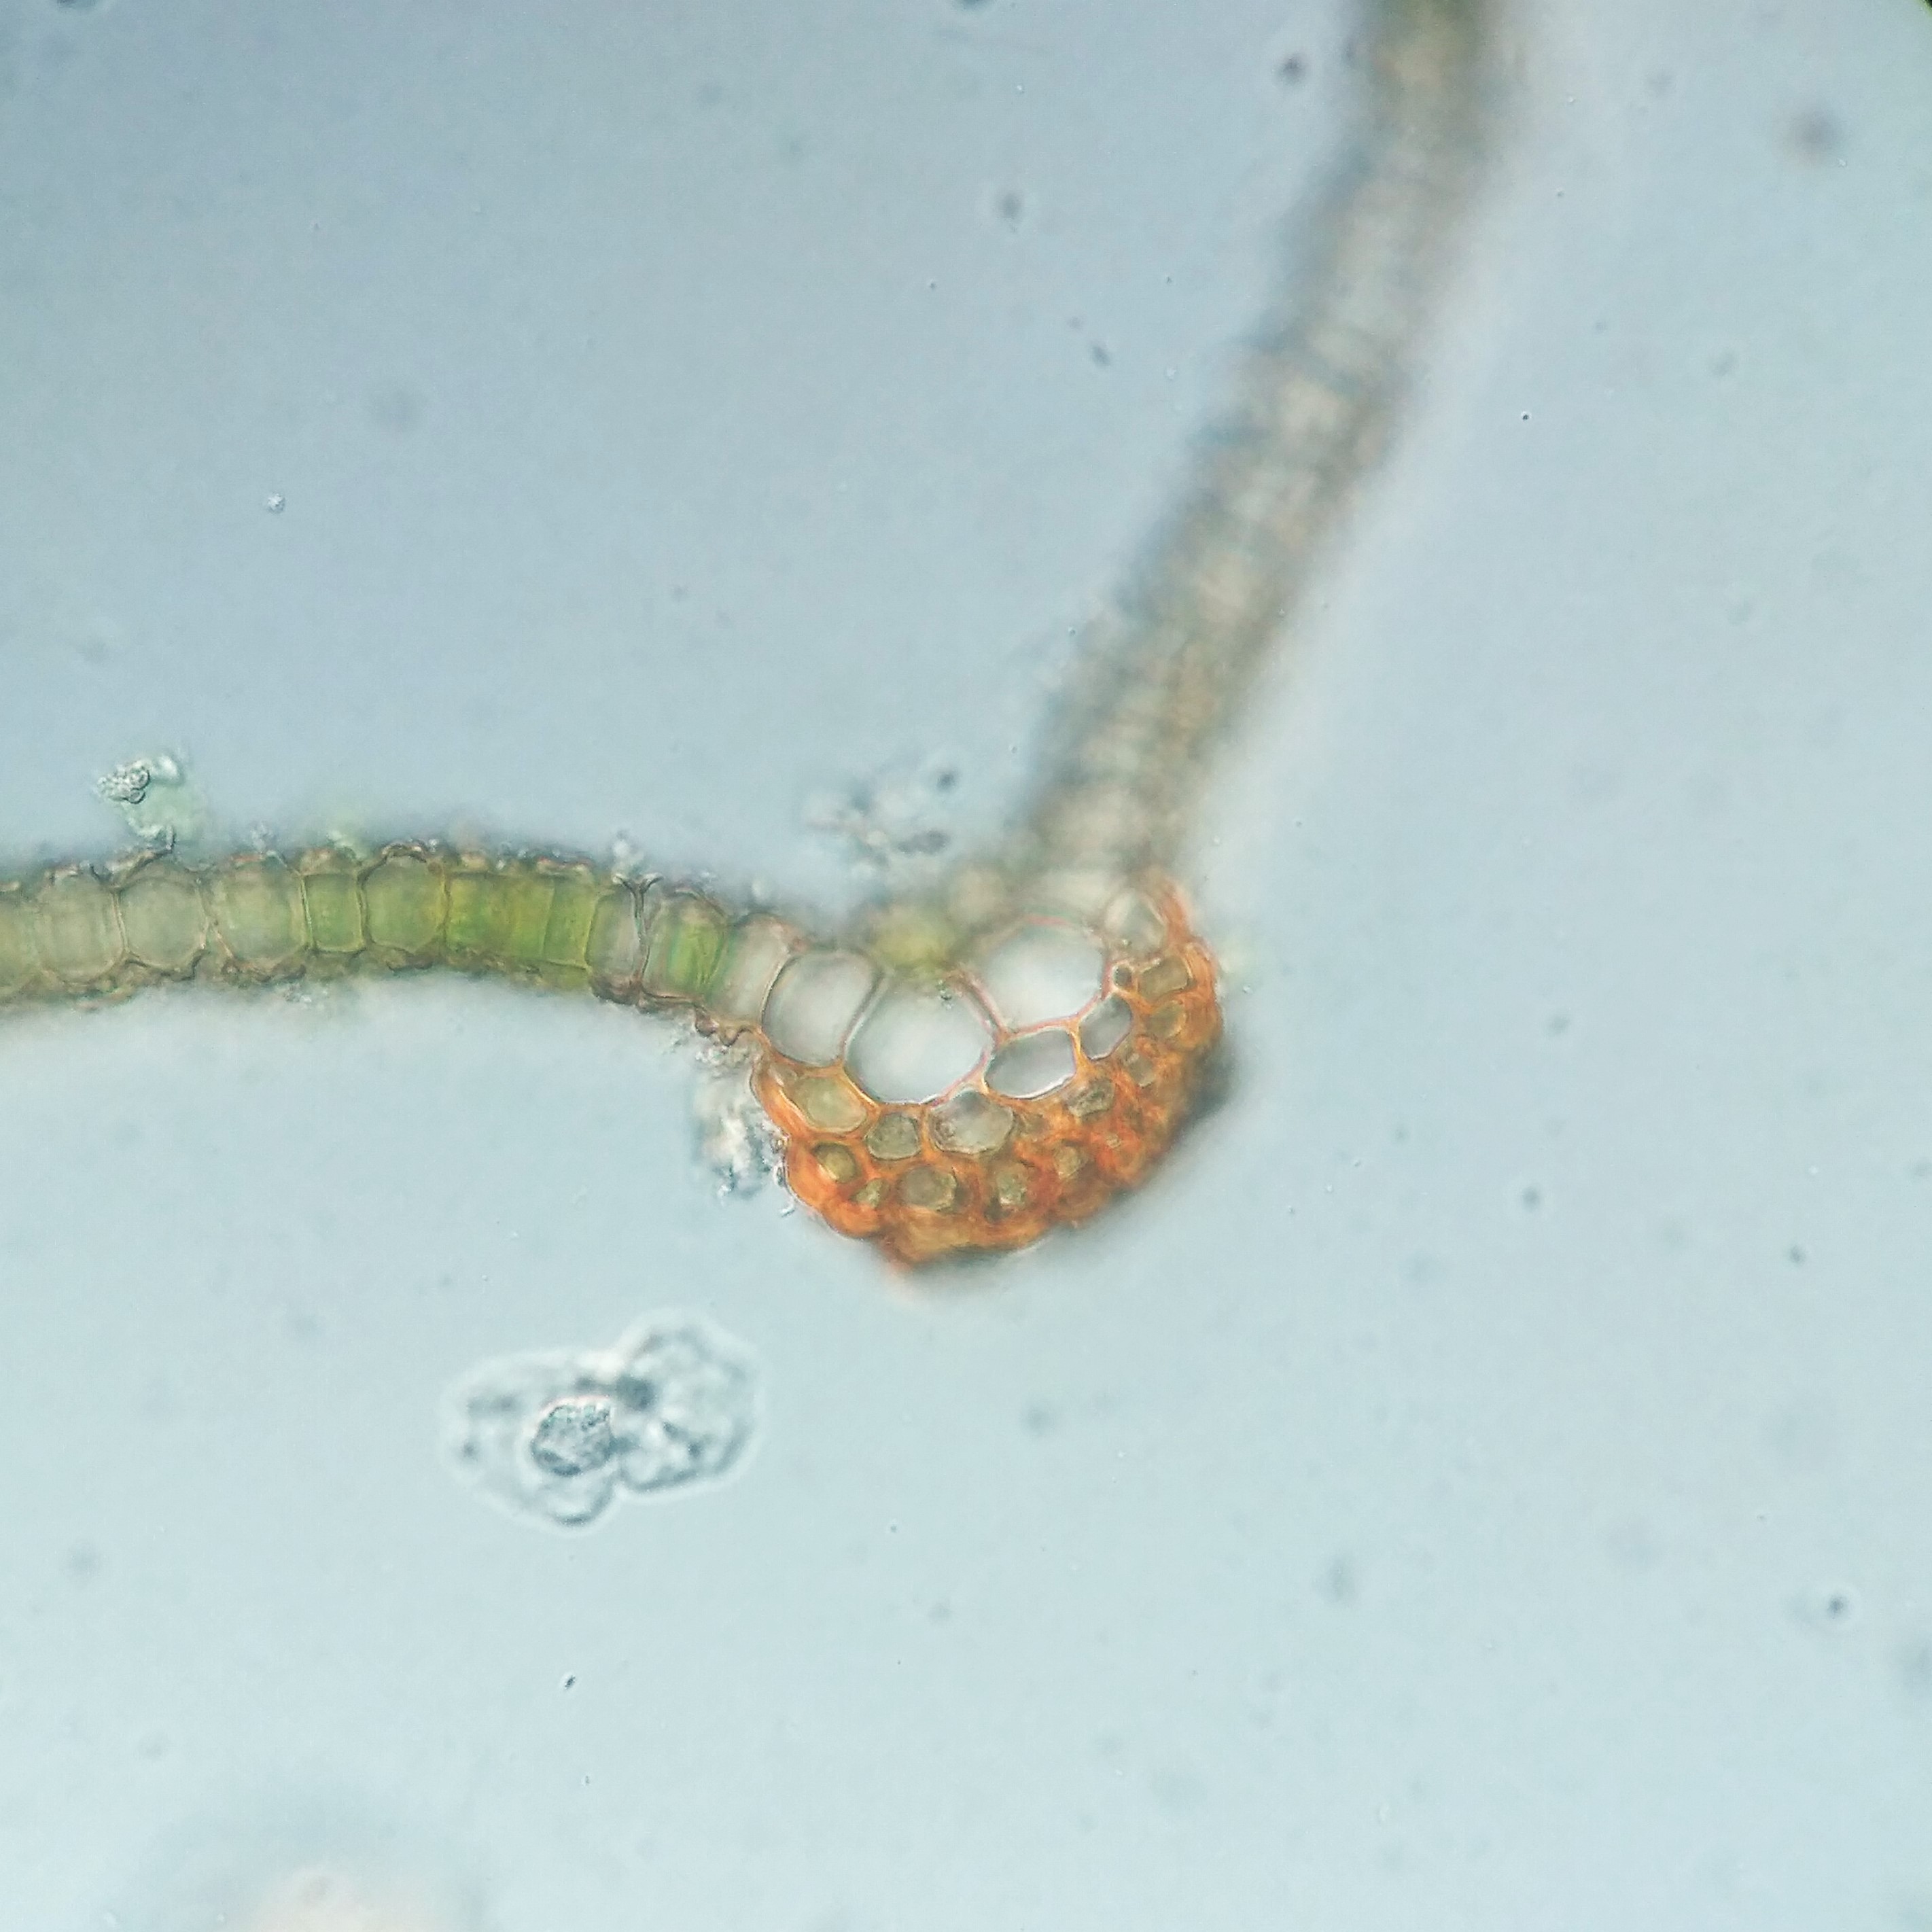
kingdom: Plantae
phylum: Bryophyta
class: Bryopsida
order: Pottiales
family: Pottiaceae
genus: Syntrichia
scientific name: Syntrichia virescens
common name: Grøn hårstjerne
